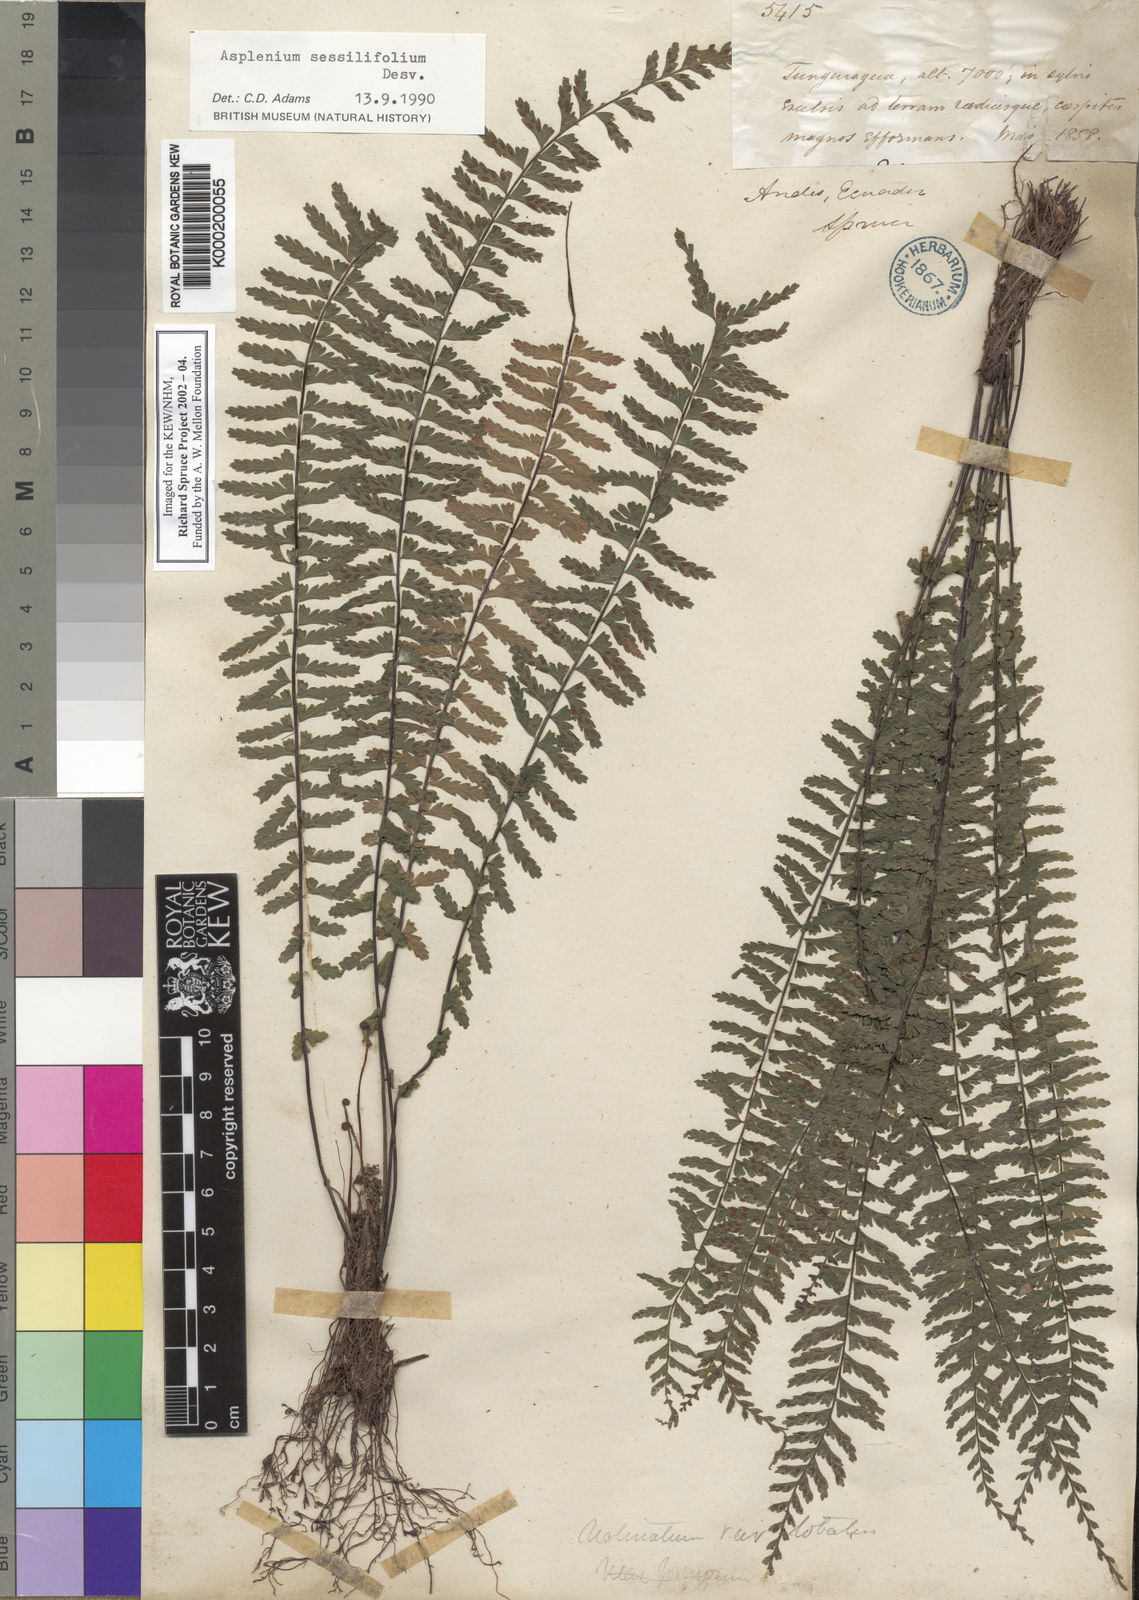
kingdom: Plantae
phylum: Tracheophyta
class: Polypodiopsida
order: Polypodiales
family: Aspleniaceae
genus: Asplenium
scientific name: Asplenium sessilifolium
